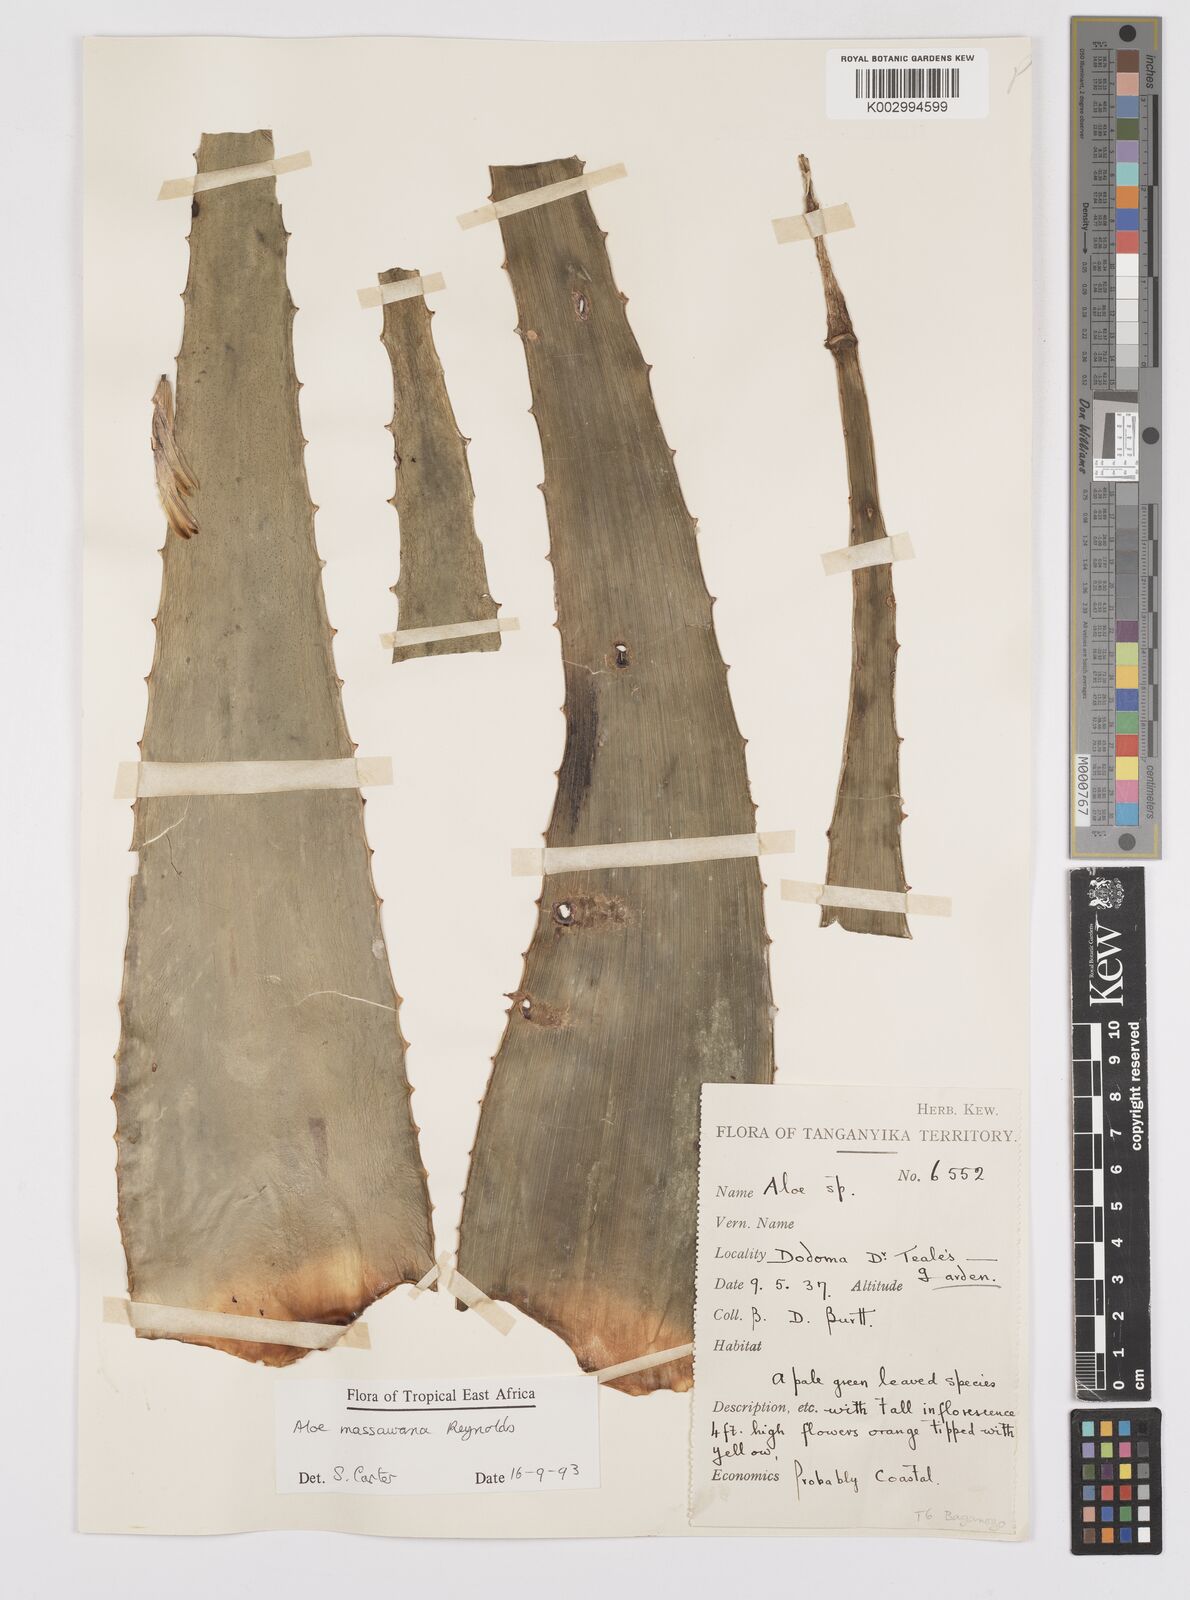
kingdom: Plantae
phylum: Tracheophyta
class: Liliopsida
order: Asparagales
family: Asphodelaceae
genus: Aloe
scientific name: Aloe massawana
